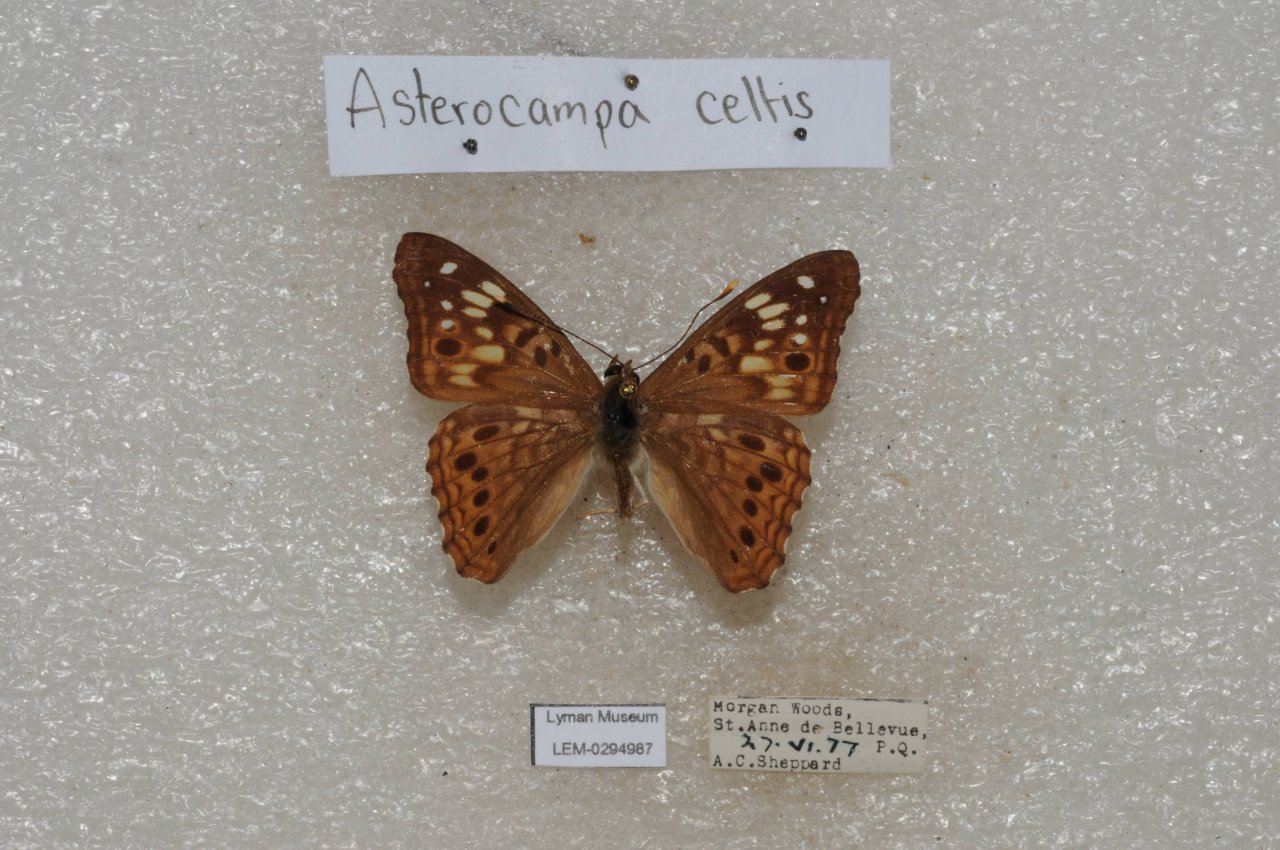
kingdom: Animalia
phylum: Arthropoda
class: Insecta
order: Lepidoptera
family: Nymphalidae
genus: Asterocampa
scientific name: Asterocampa celtis
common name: Hackberry Emperor
